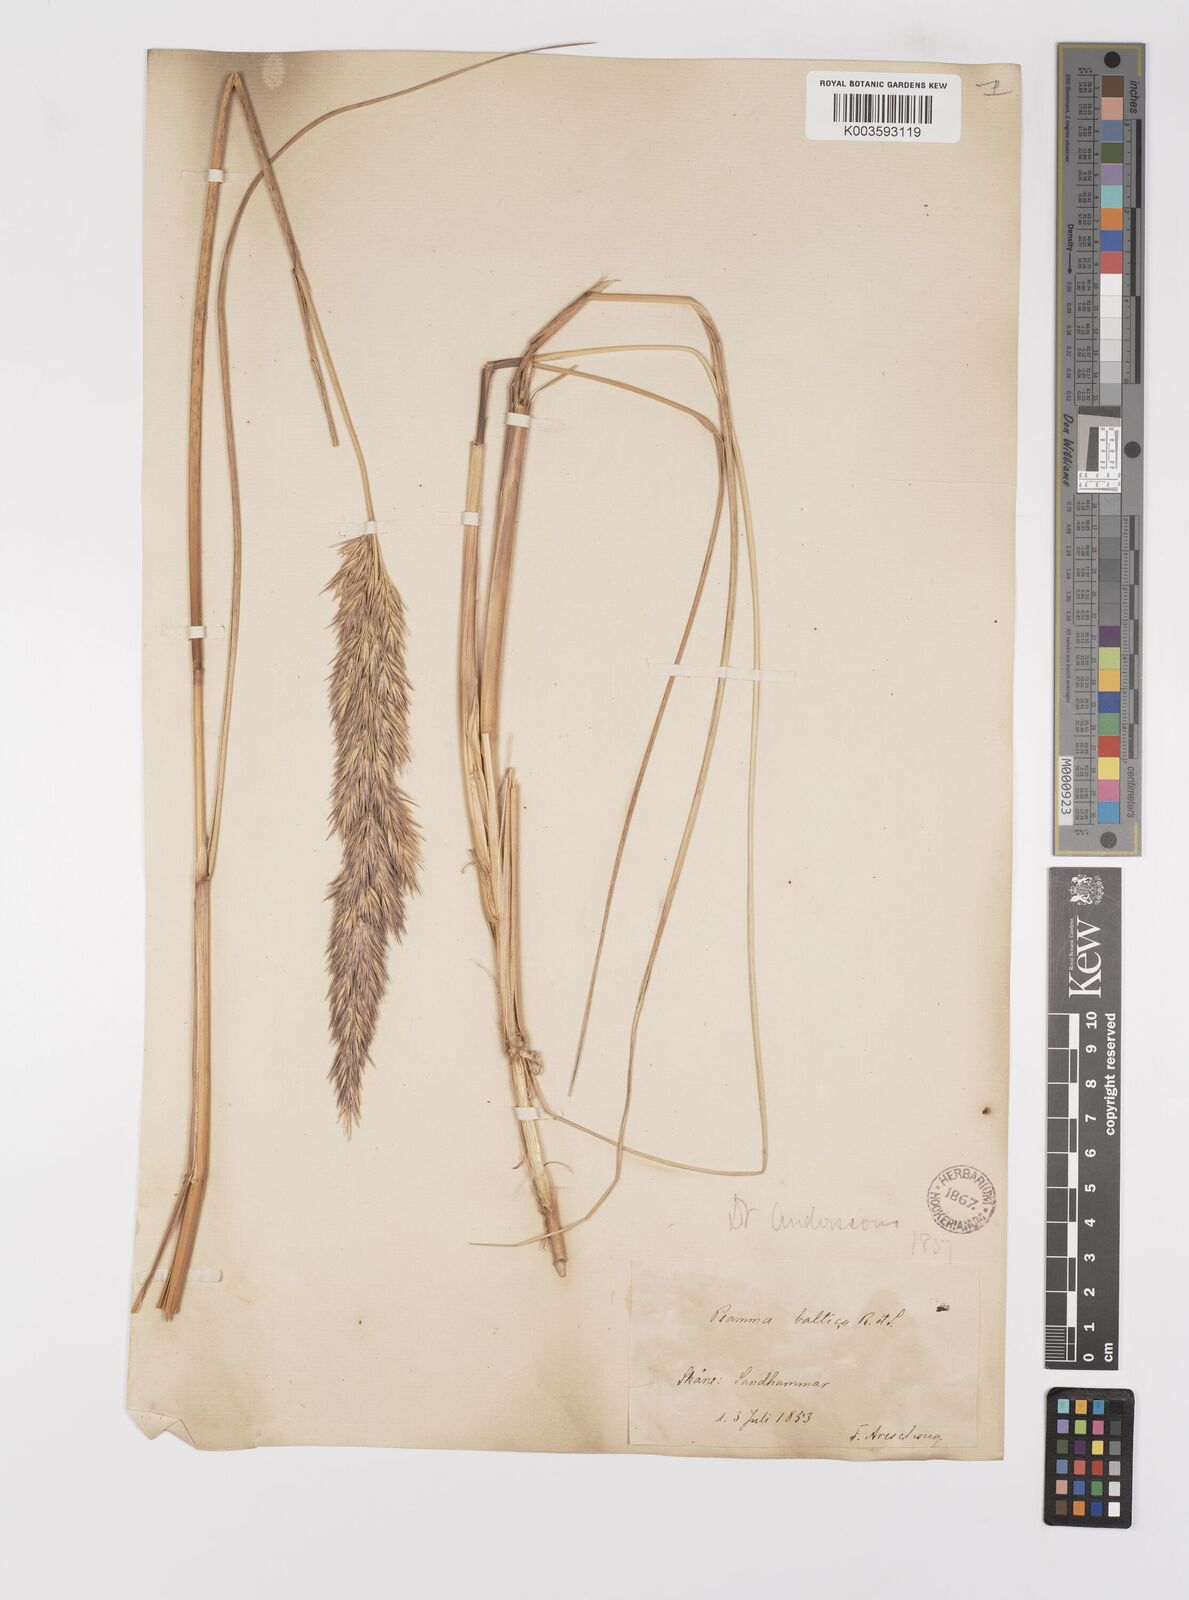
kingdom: Plantae
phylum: Tracheophyta
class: Liliopsida
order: Poales
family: Poaceae
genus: Calamagrostis
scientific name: Calamagrostis baltica
